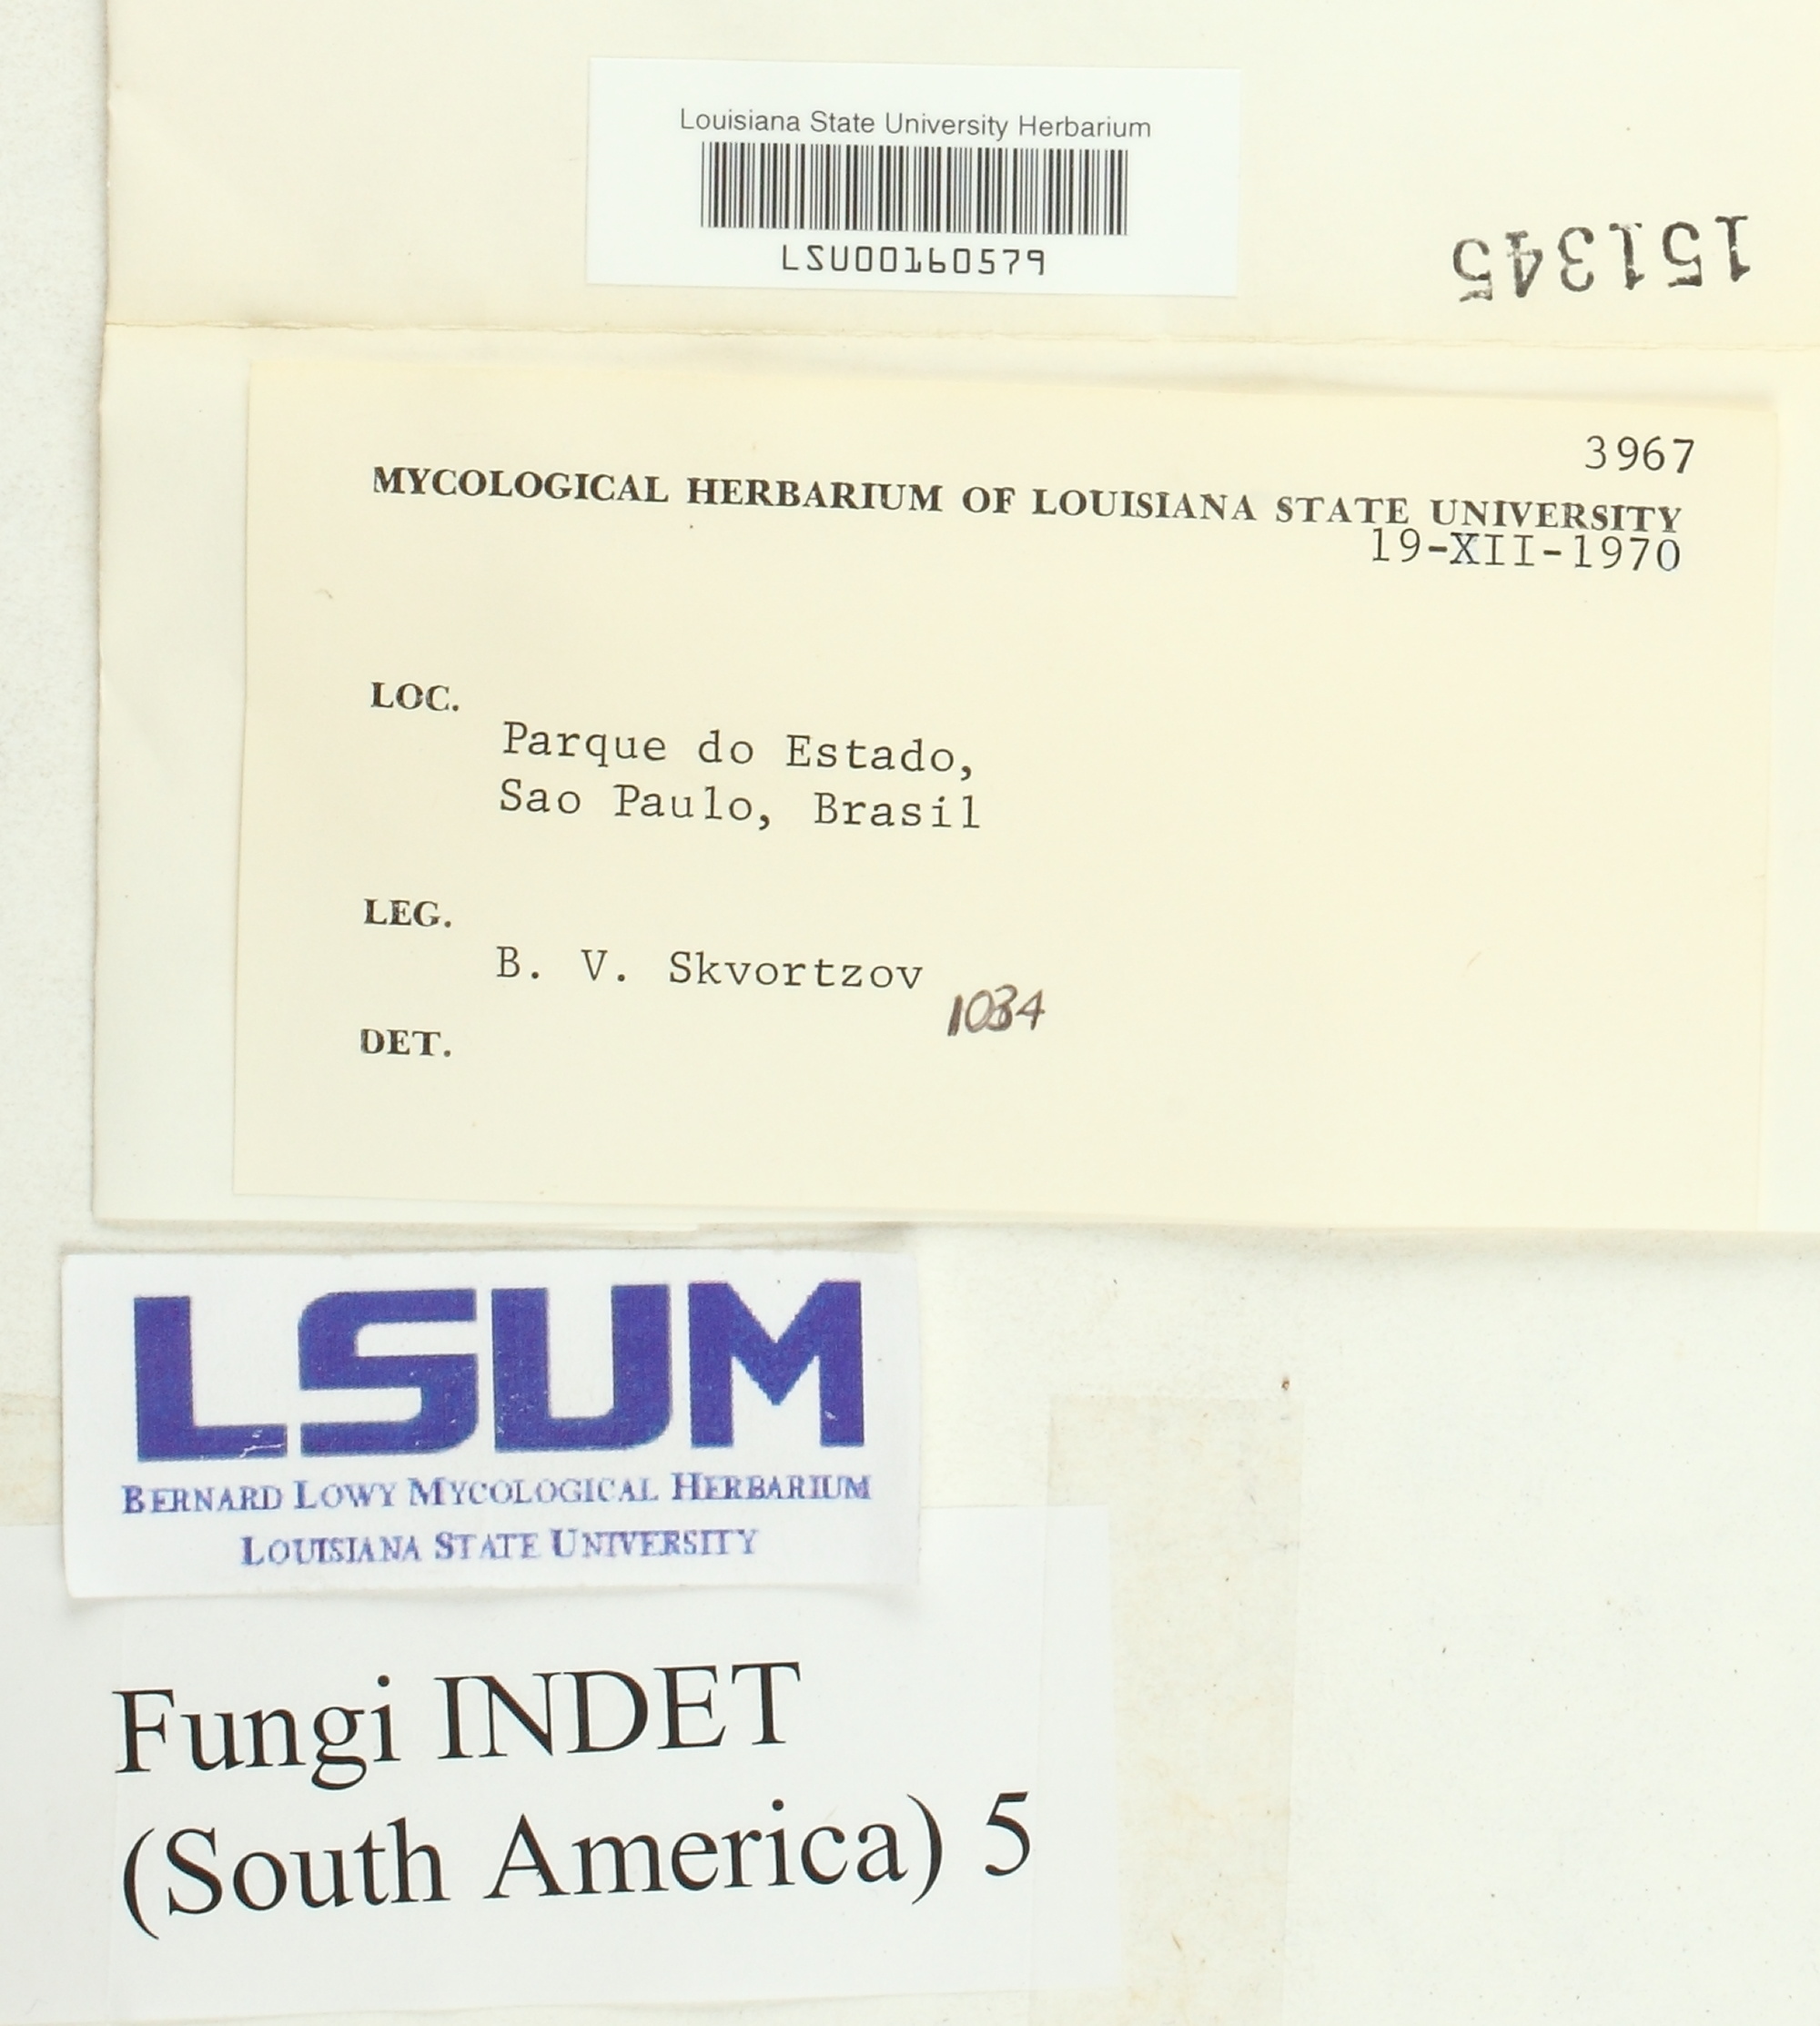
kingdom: Fungi
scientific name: Fungi
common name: Fungi
